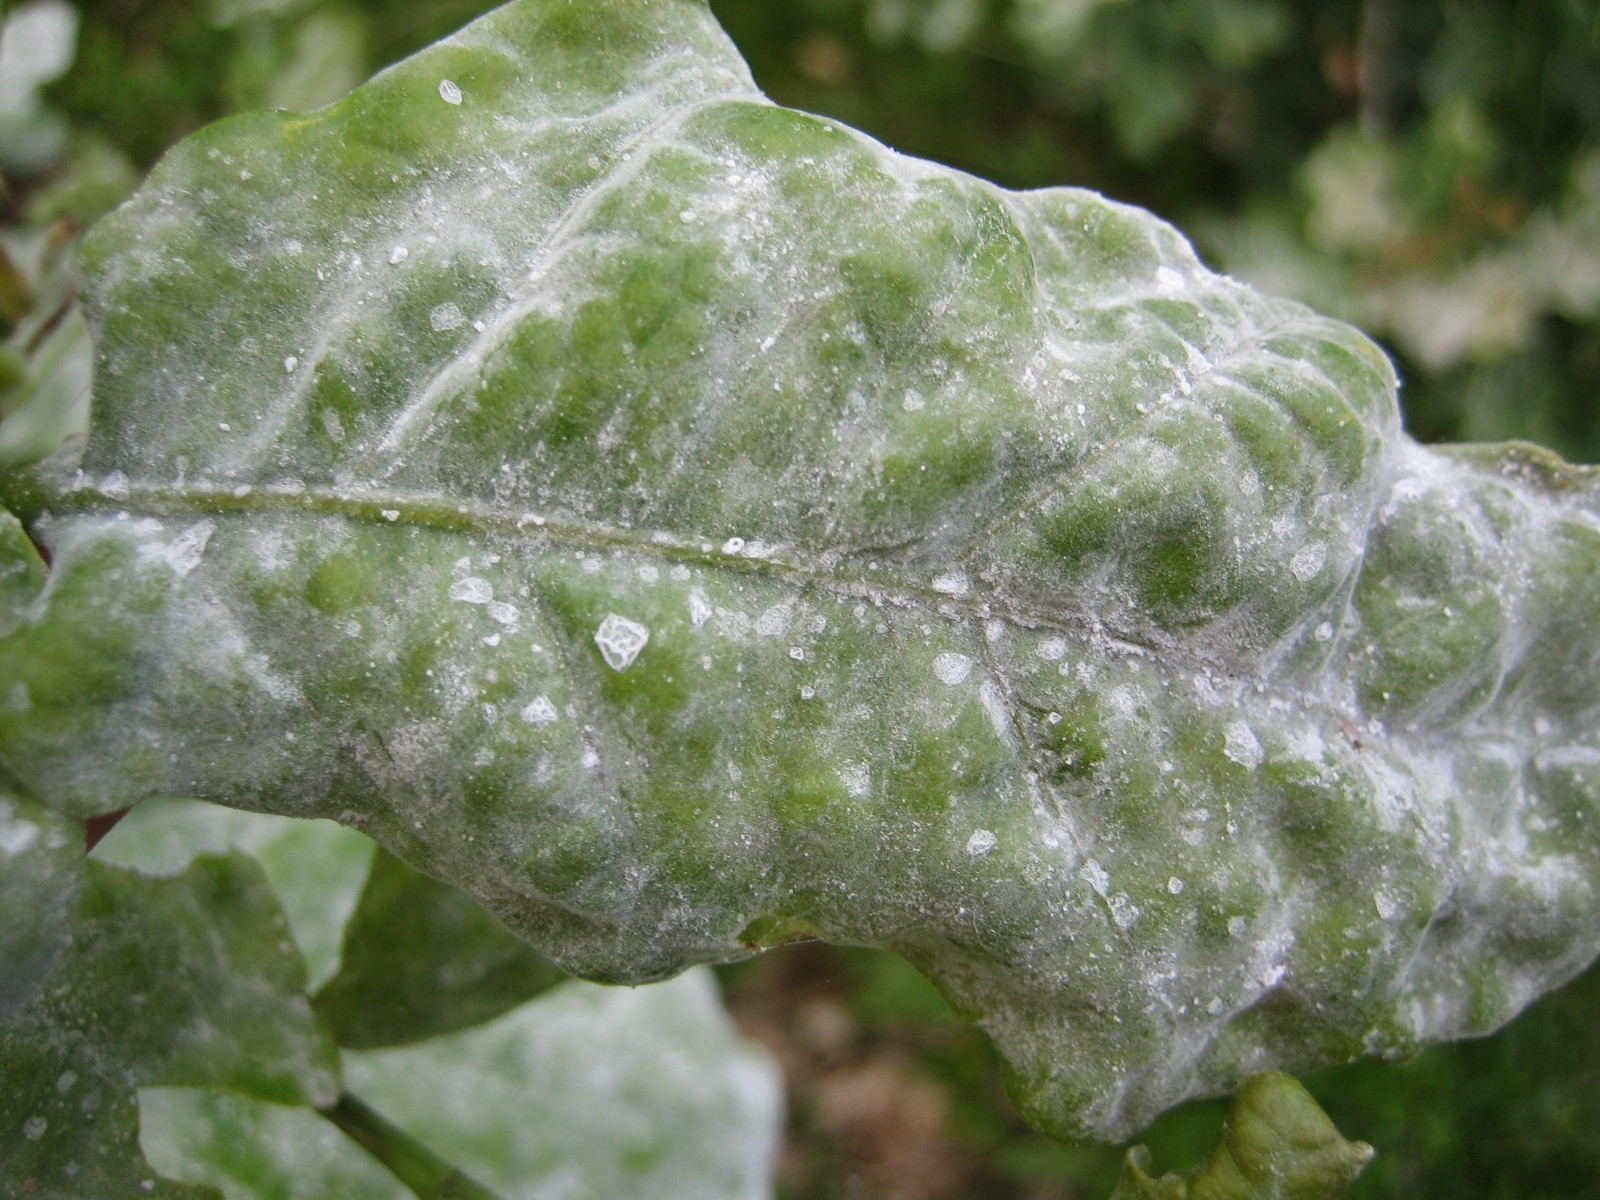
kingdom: Fungi
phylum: Ascomycota
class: Leotiomycetes
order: Helotiales
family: Erysiphaceae
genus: Erysiphe
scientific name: Erysiphe alphitoides
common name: ege-meldug
